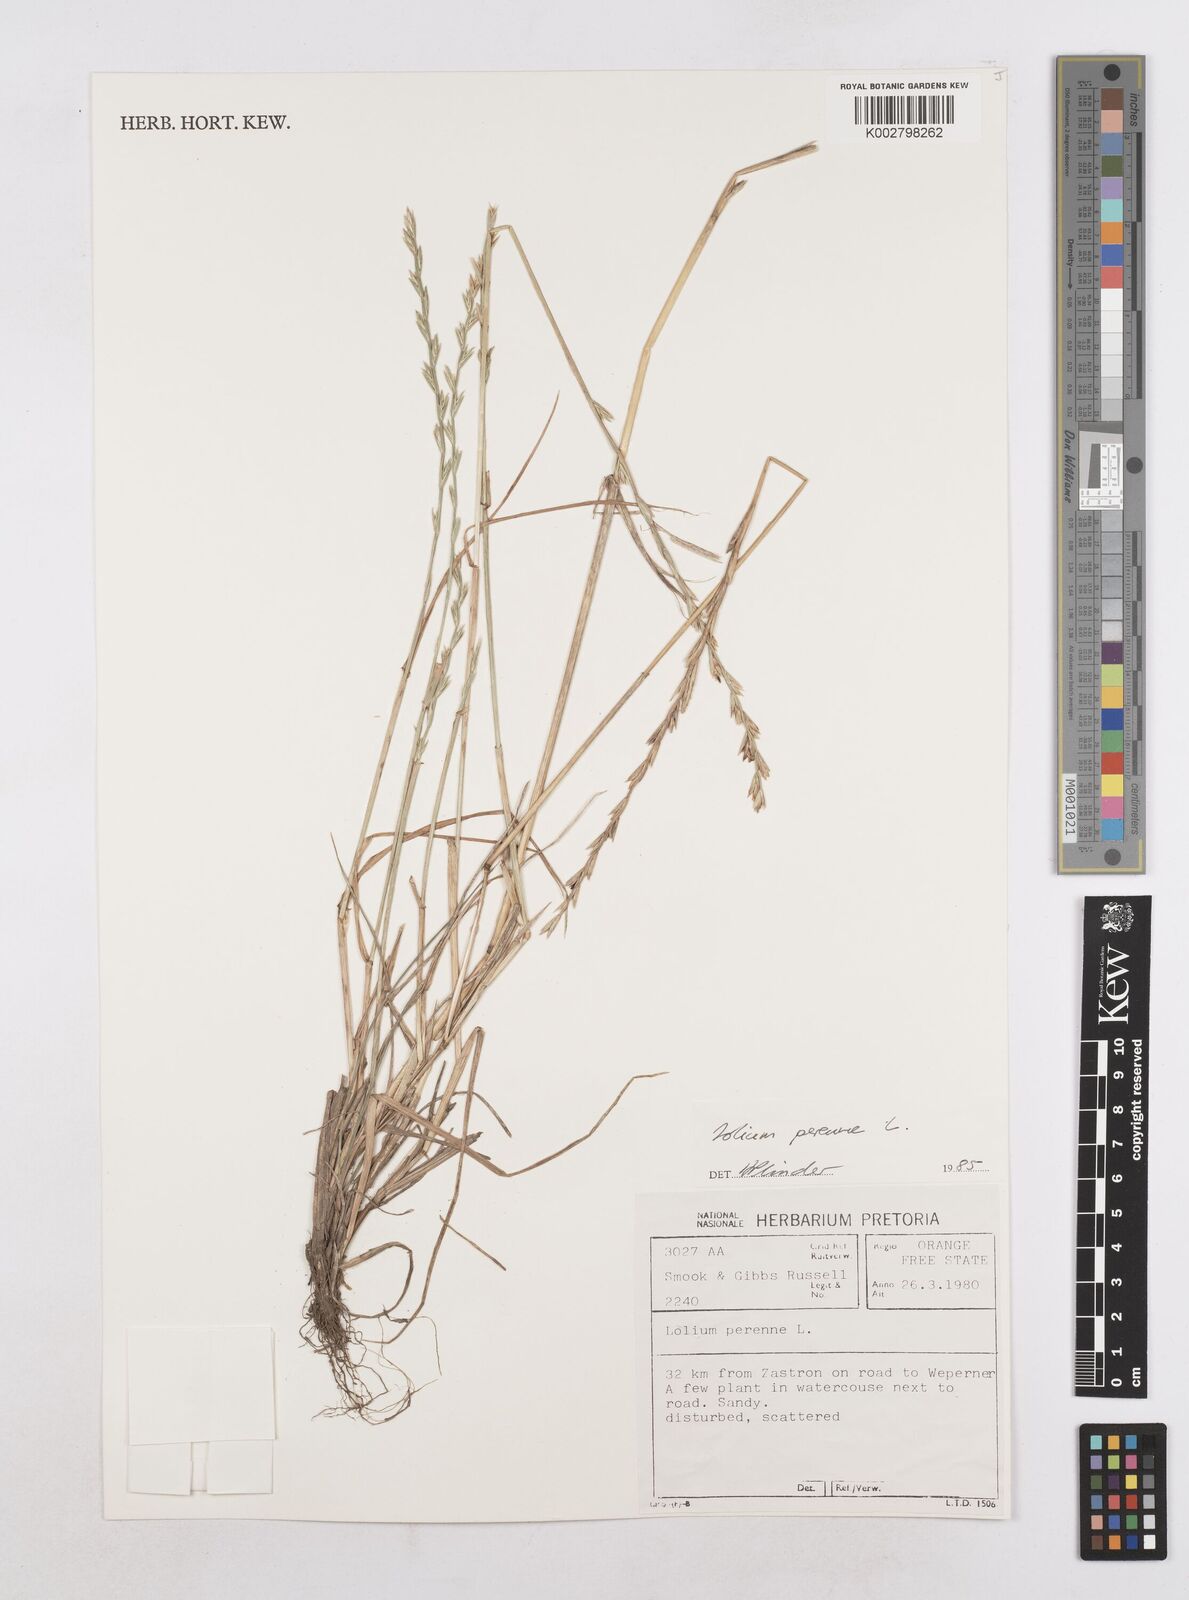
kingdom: Plantae
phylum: Tracheophyta
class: Liliopsida
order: Poales
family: Poaceae
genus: Lolium
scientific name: Lolium perenne
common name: Perennial ryegrass
